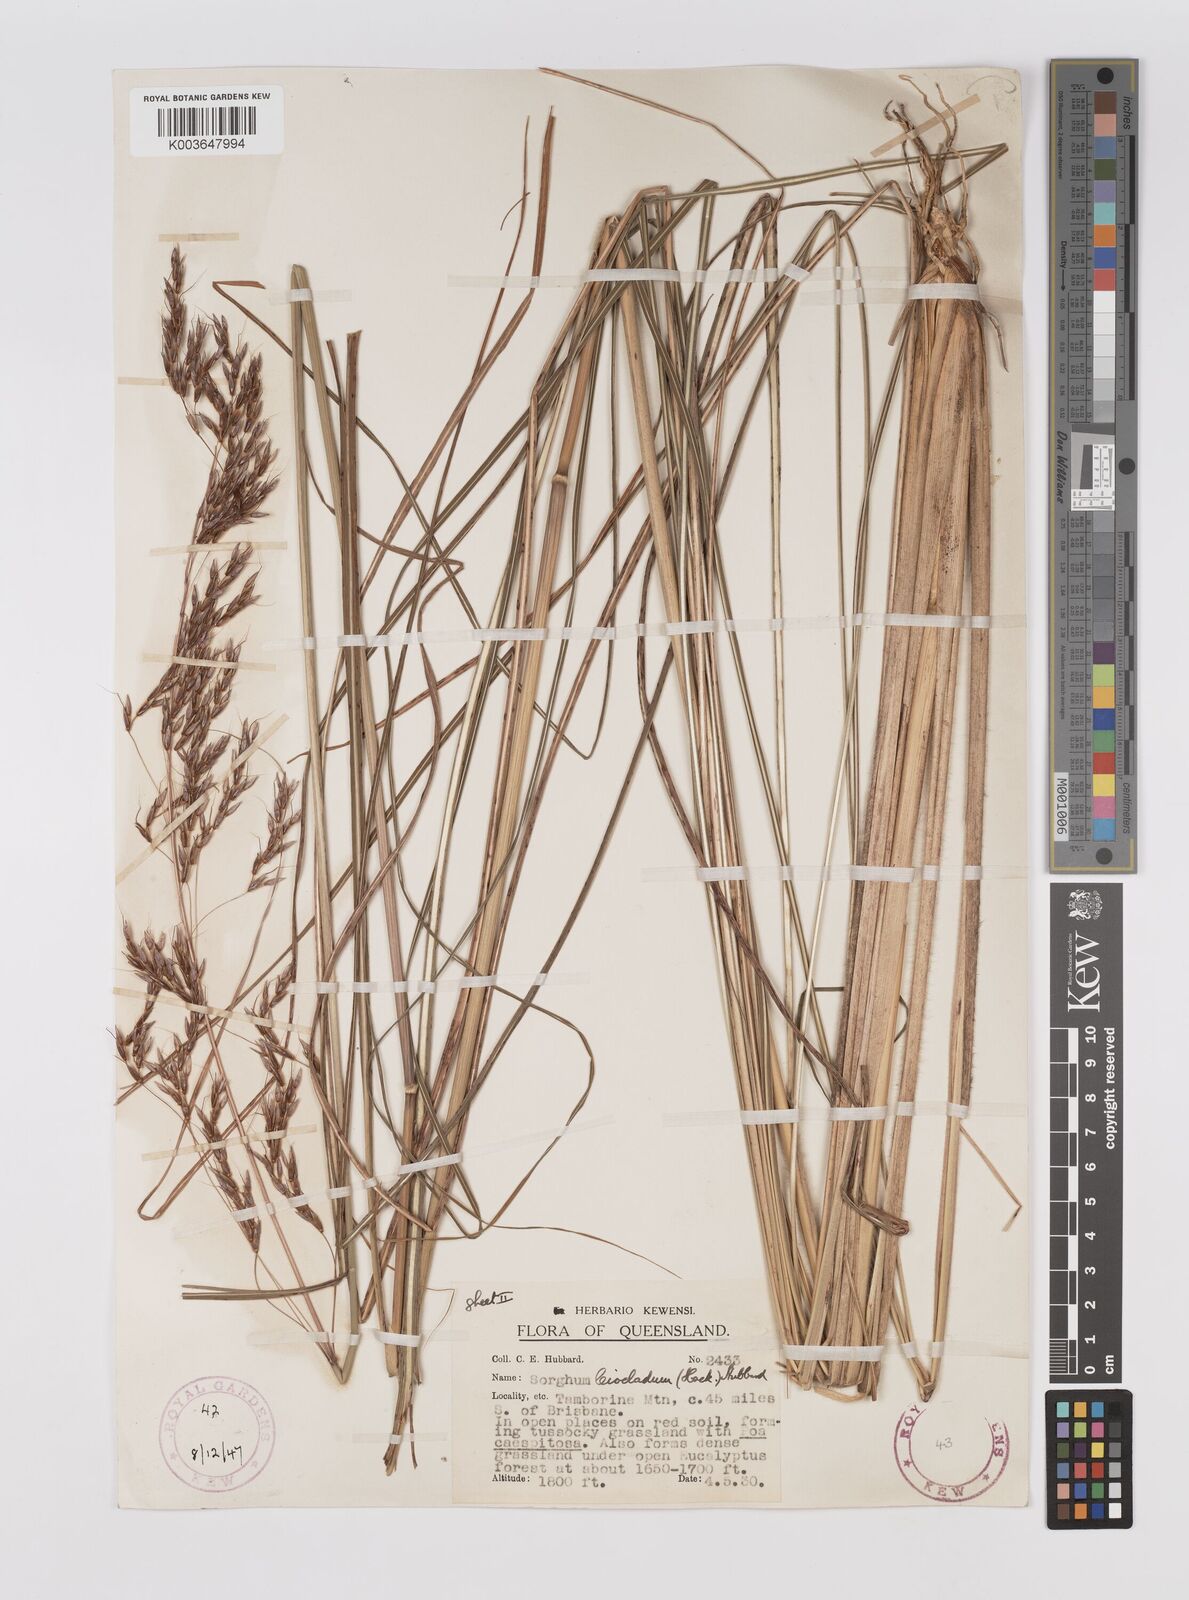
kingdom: Plantae
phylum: Tracheophyta
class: Liliopsida
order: Poales
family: Poaceae
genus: Sarga
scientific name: Sarga leioclada
